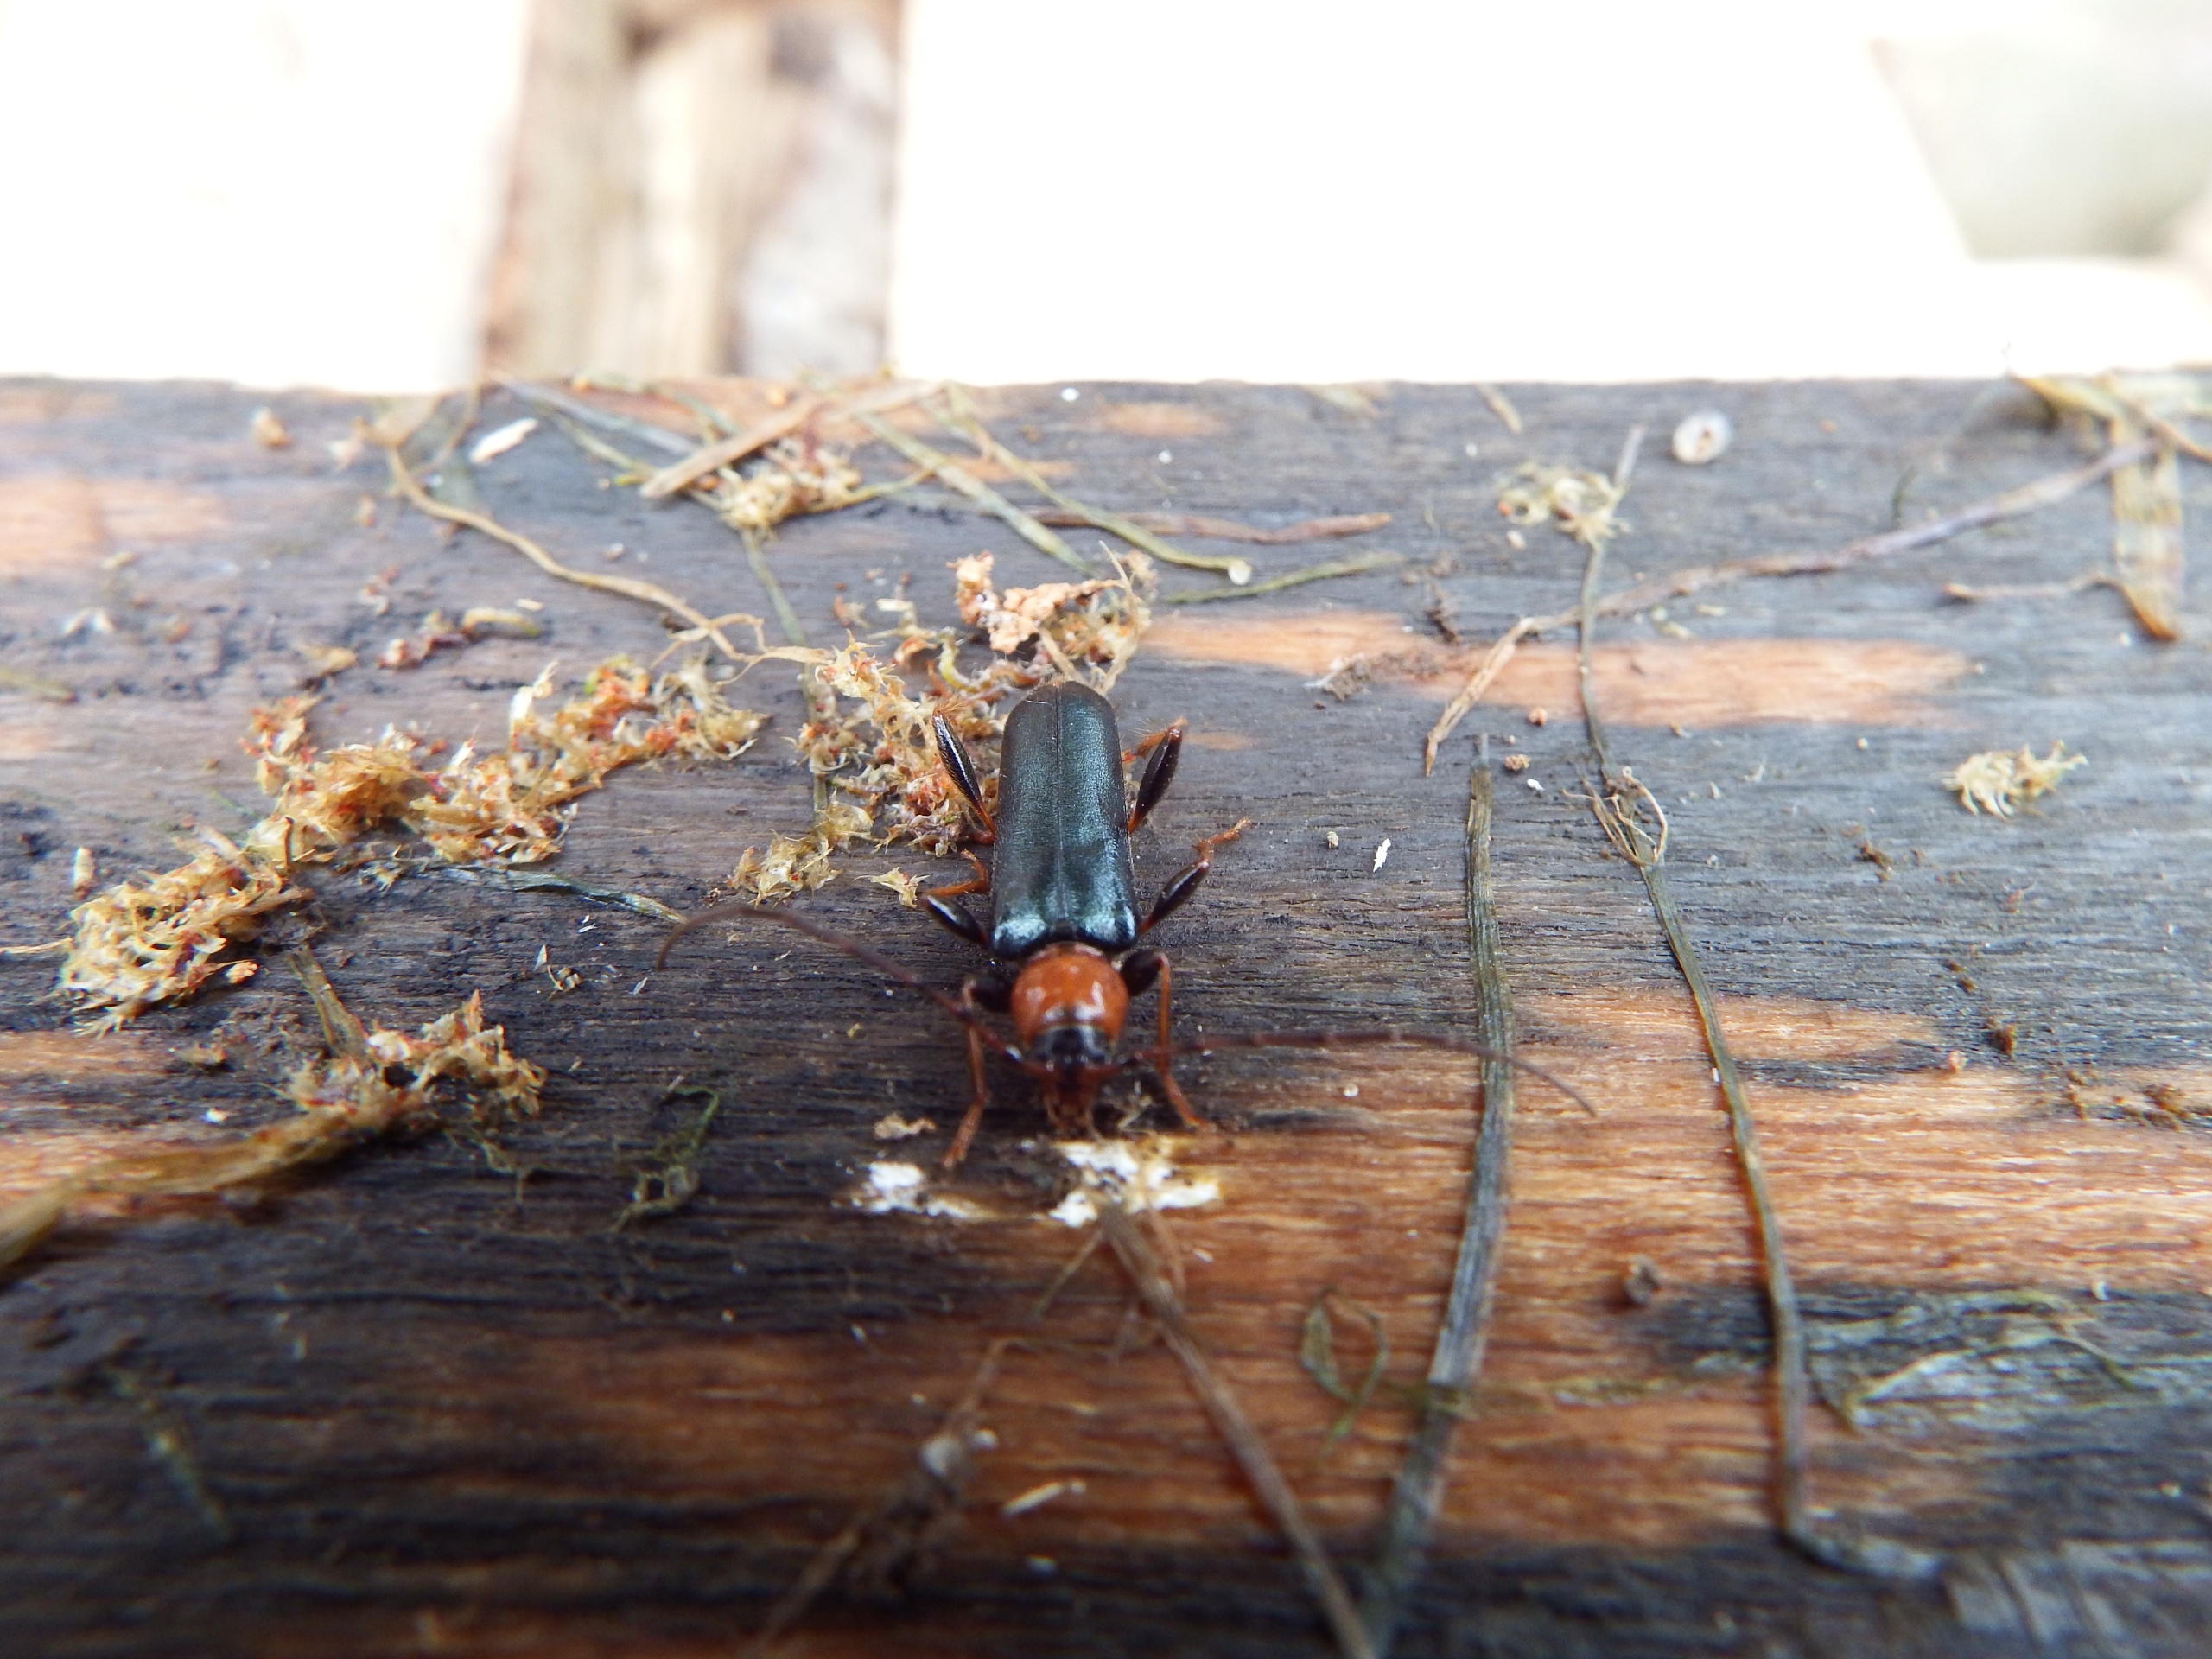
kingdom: Animalia
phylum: Arthropoda
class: Insecta
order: Coleoptera
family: Cerambycidae
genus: Phymatodes
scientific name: Phymatodes testaceus
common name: Bøgebuk
